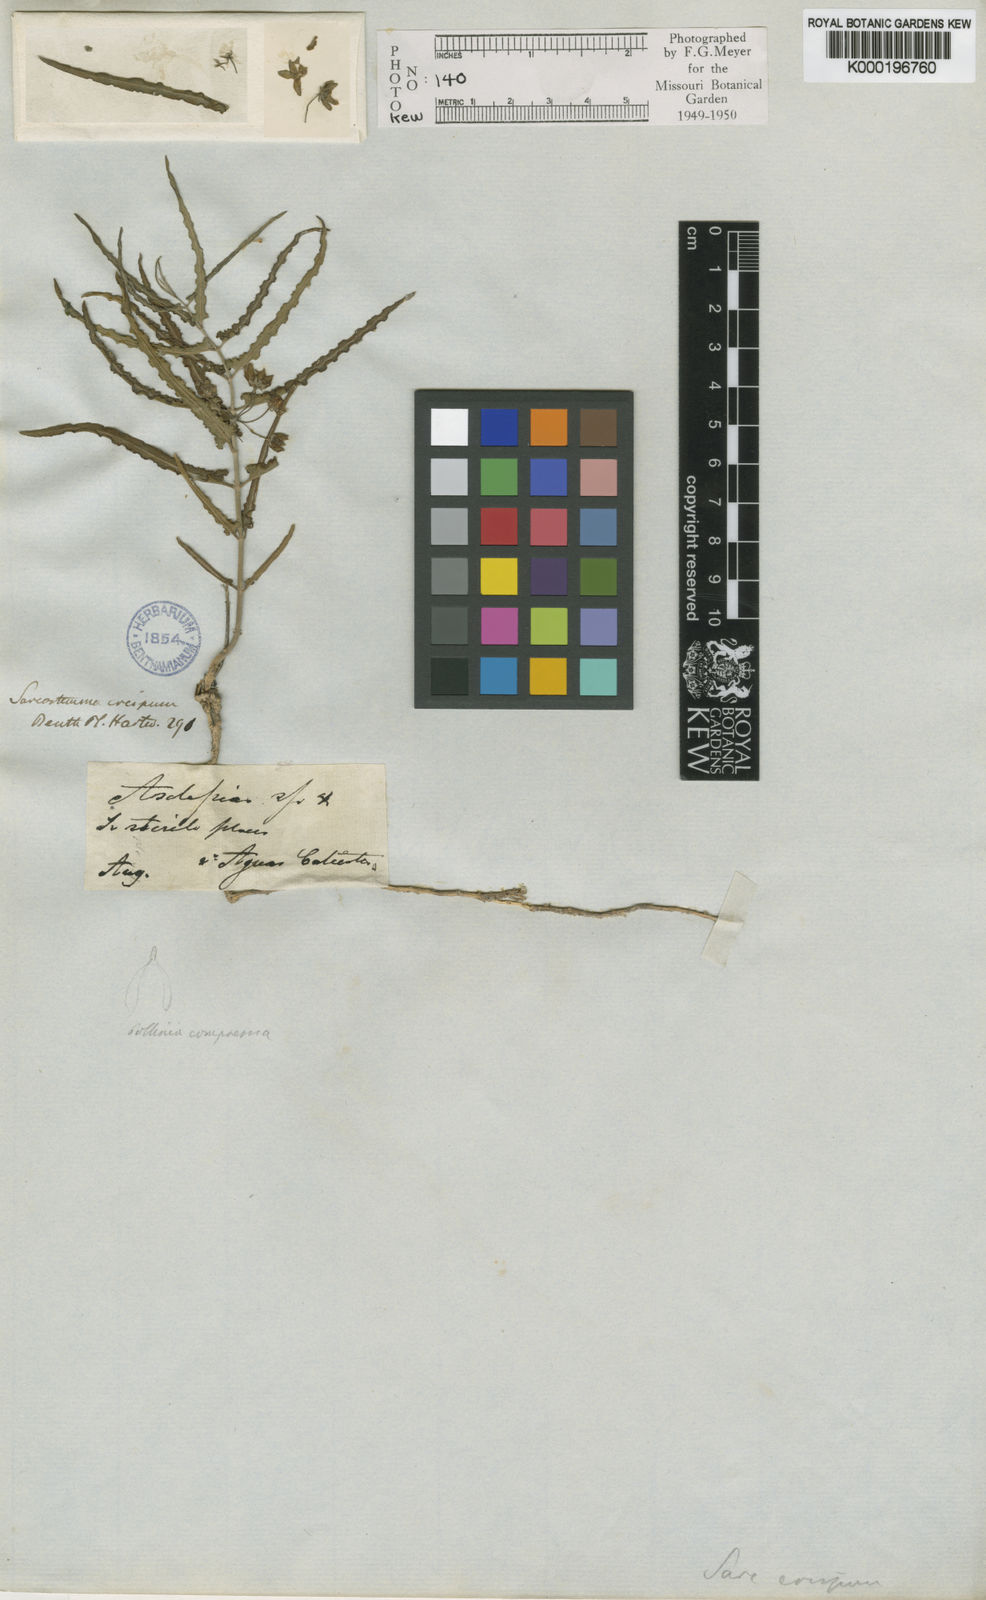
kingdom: Plantae
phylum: Tracheophyta
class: Magnoliopsida
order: Gentianales
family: Apocynaceae
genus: Funastrum
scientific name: Funastrum crispum
